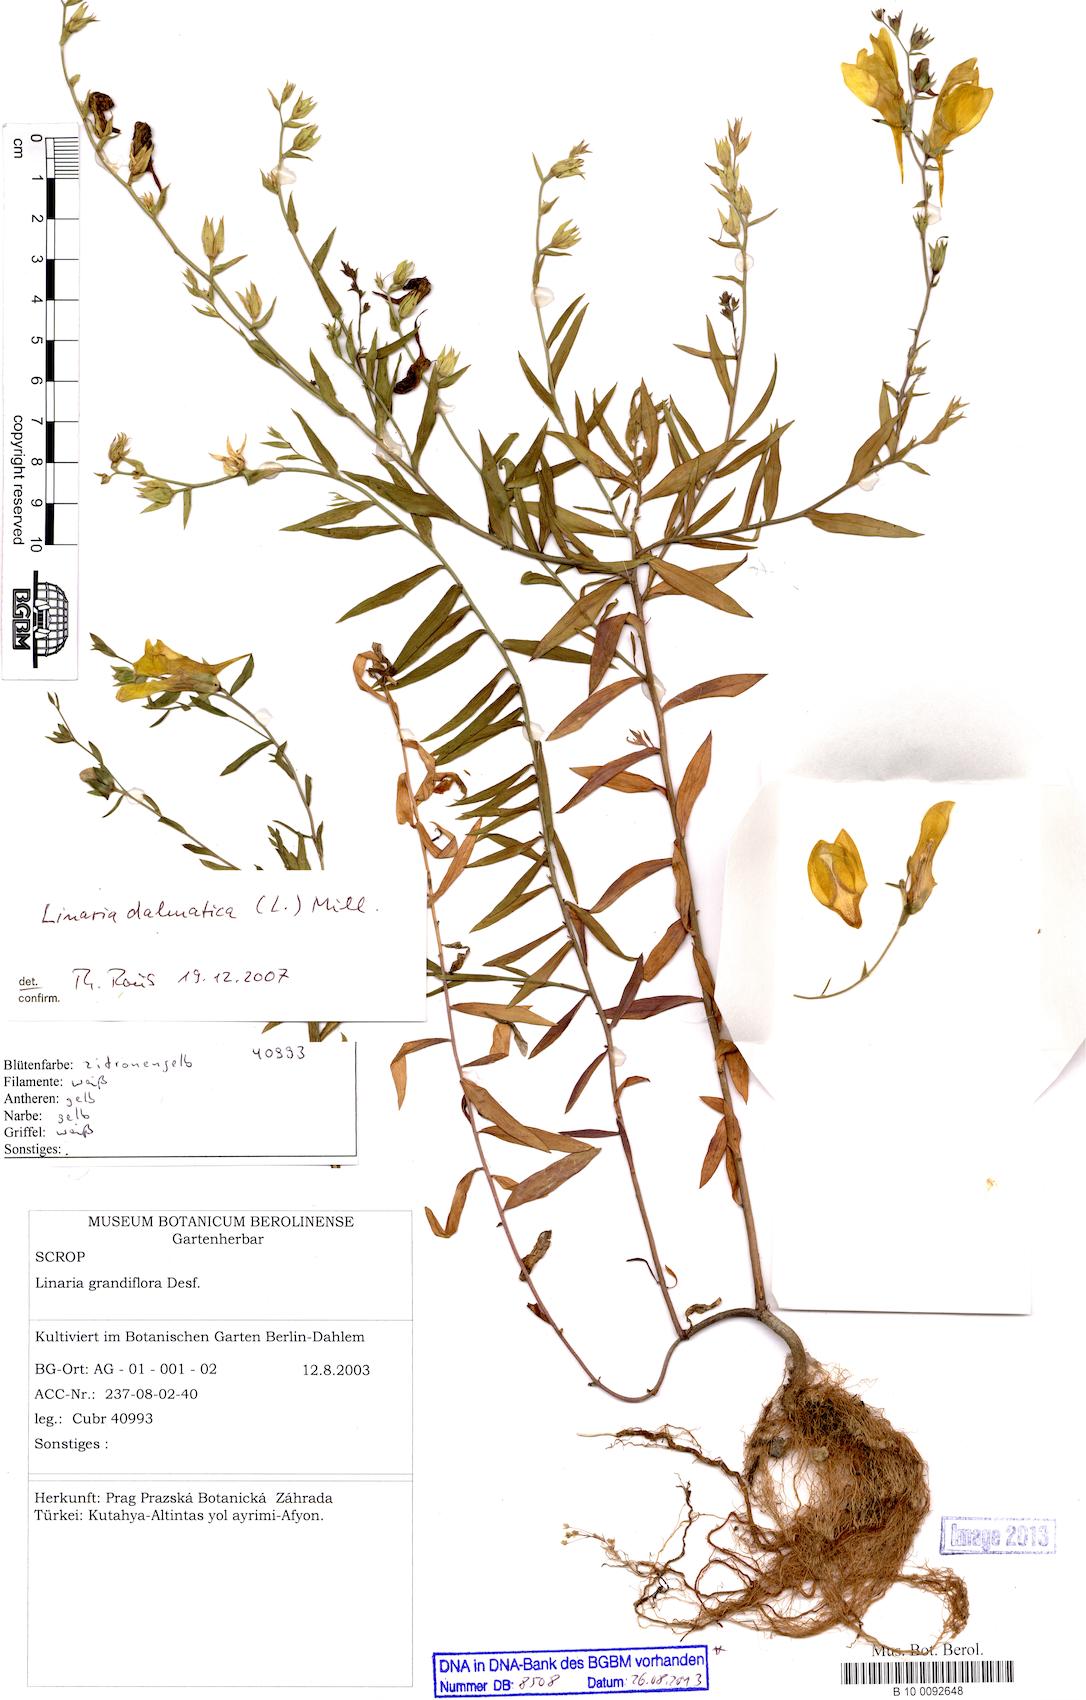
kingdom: Plantae
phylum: Tracheophyta
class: Magnoliopsida
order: Lamiales
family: Plantaginaceae
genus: Linaria
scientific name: Linaria dalmatica
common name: Dalmatian toadflax
